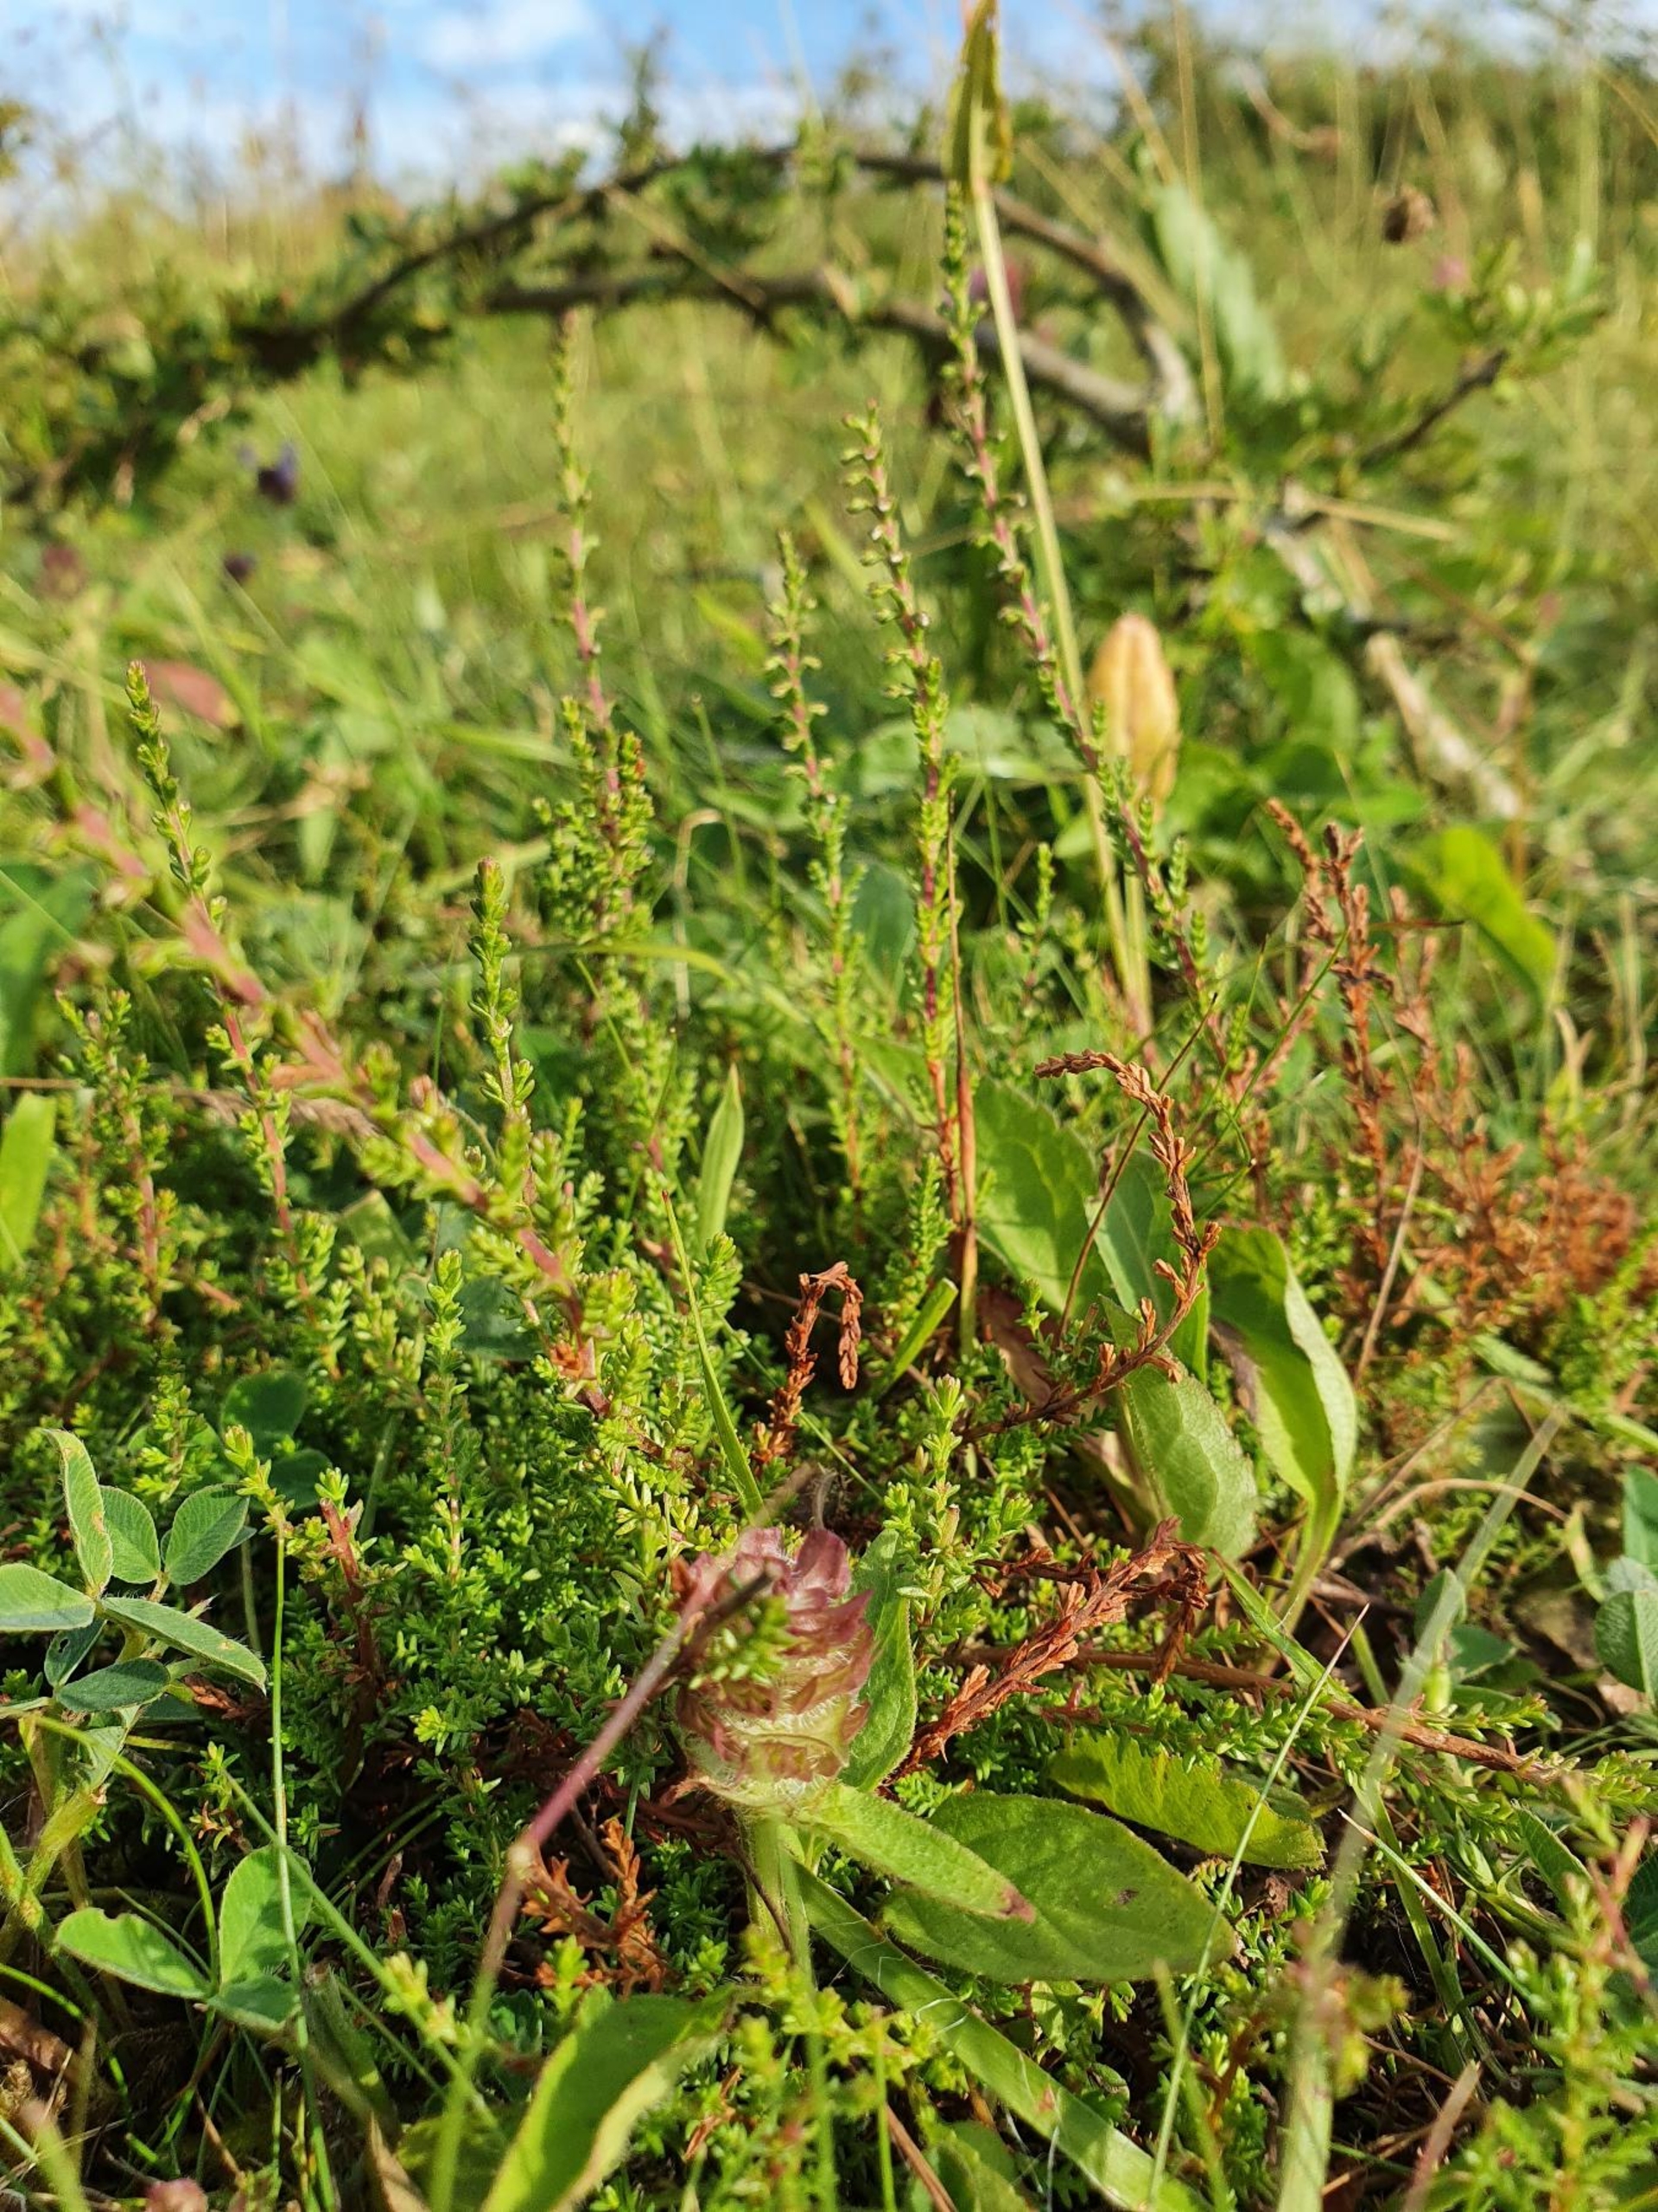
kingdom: Plantae
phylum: Tracheophyta
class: Magnoliopsida
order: Ericales
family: Ericaceae
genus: Calluna
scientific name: Calluna vulgaris
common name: Hedelyng
